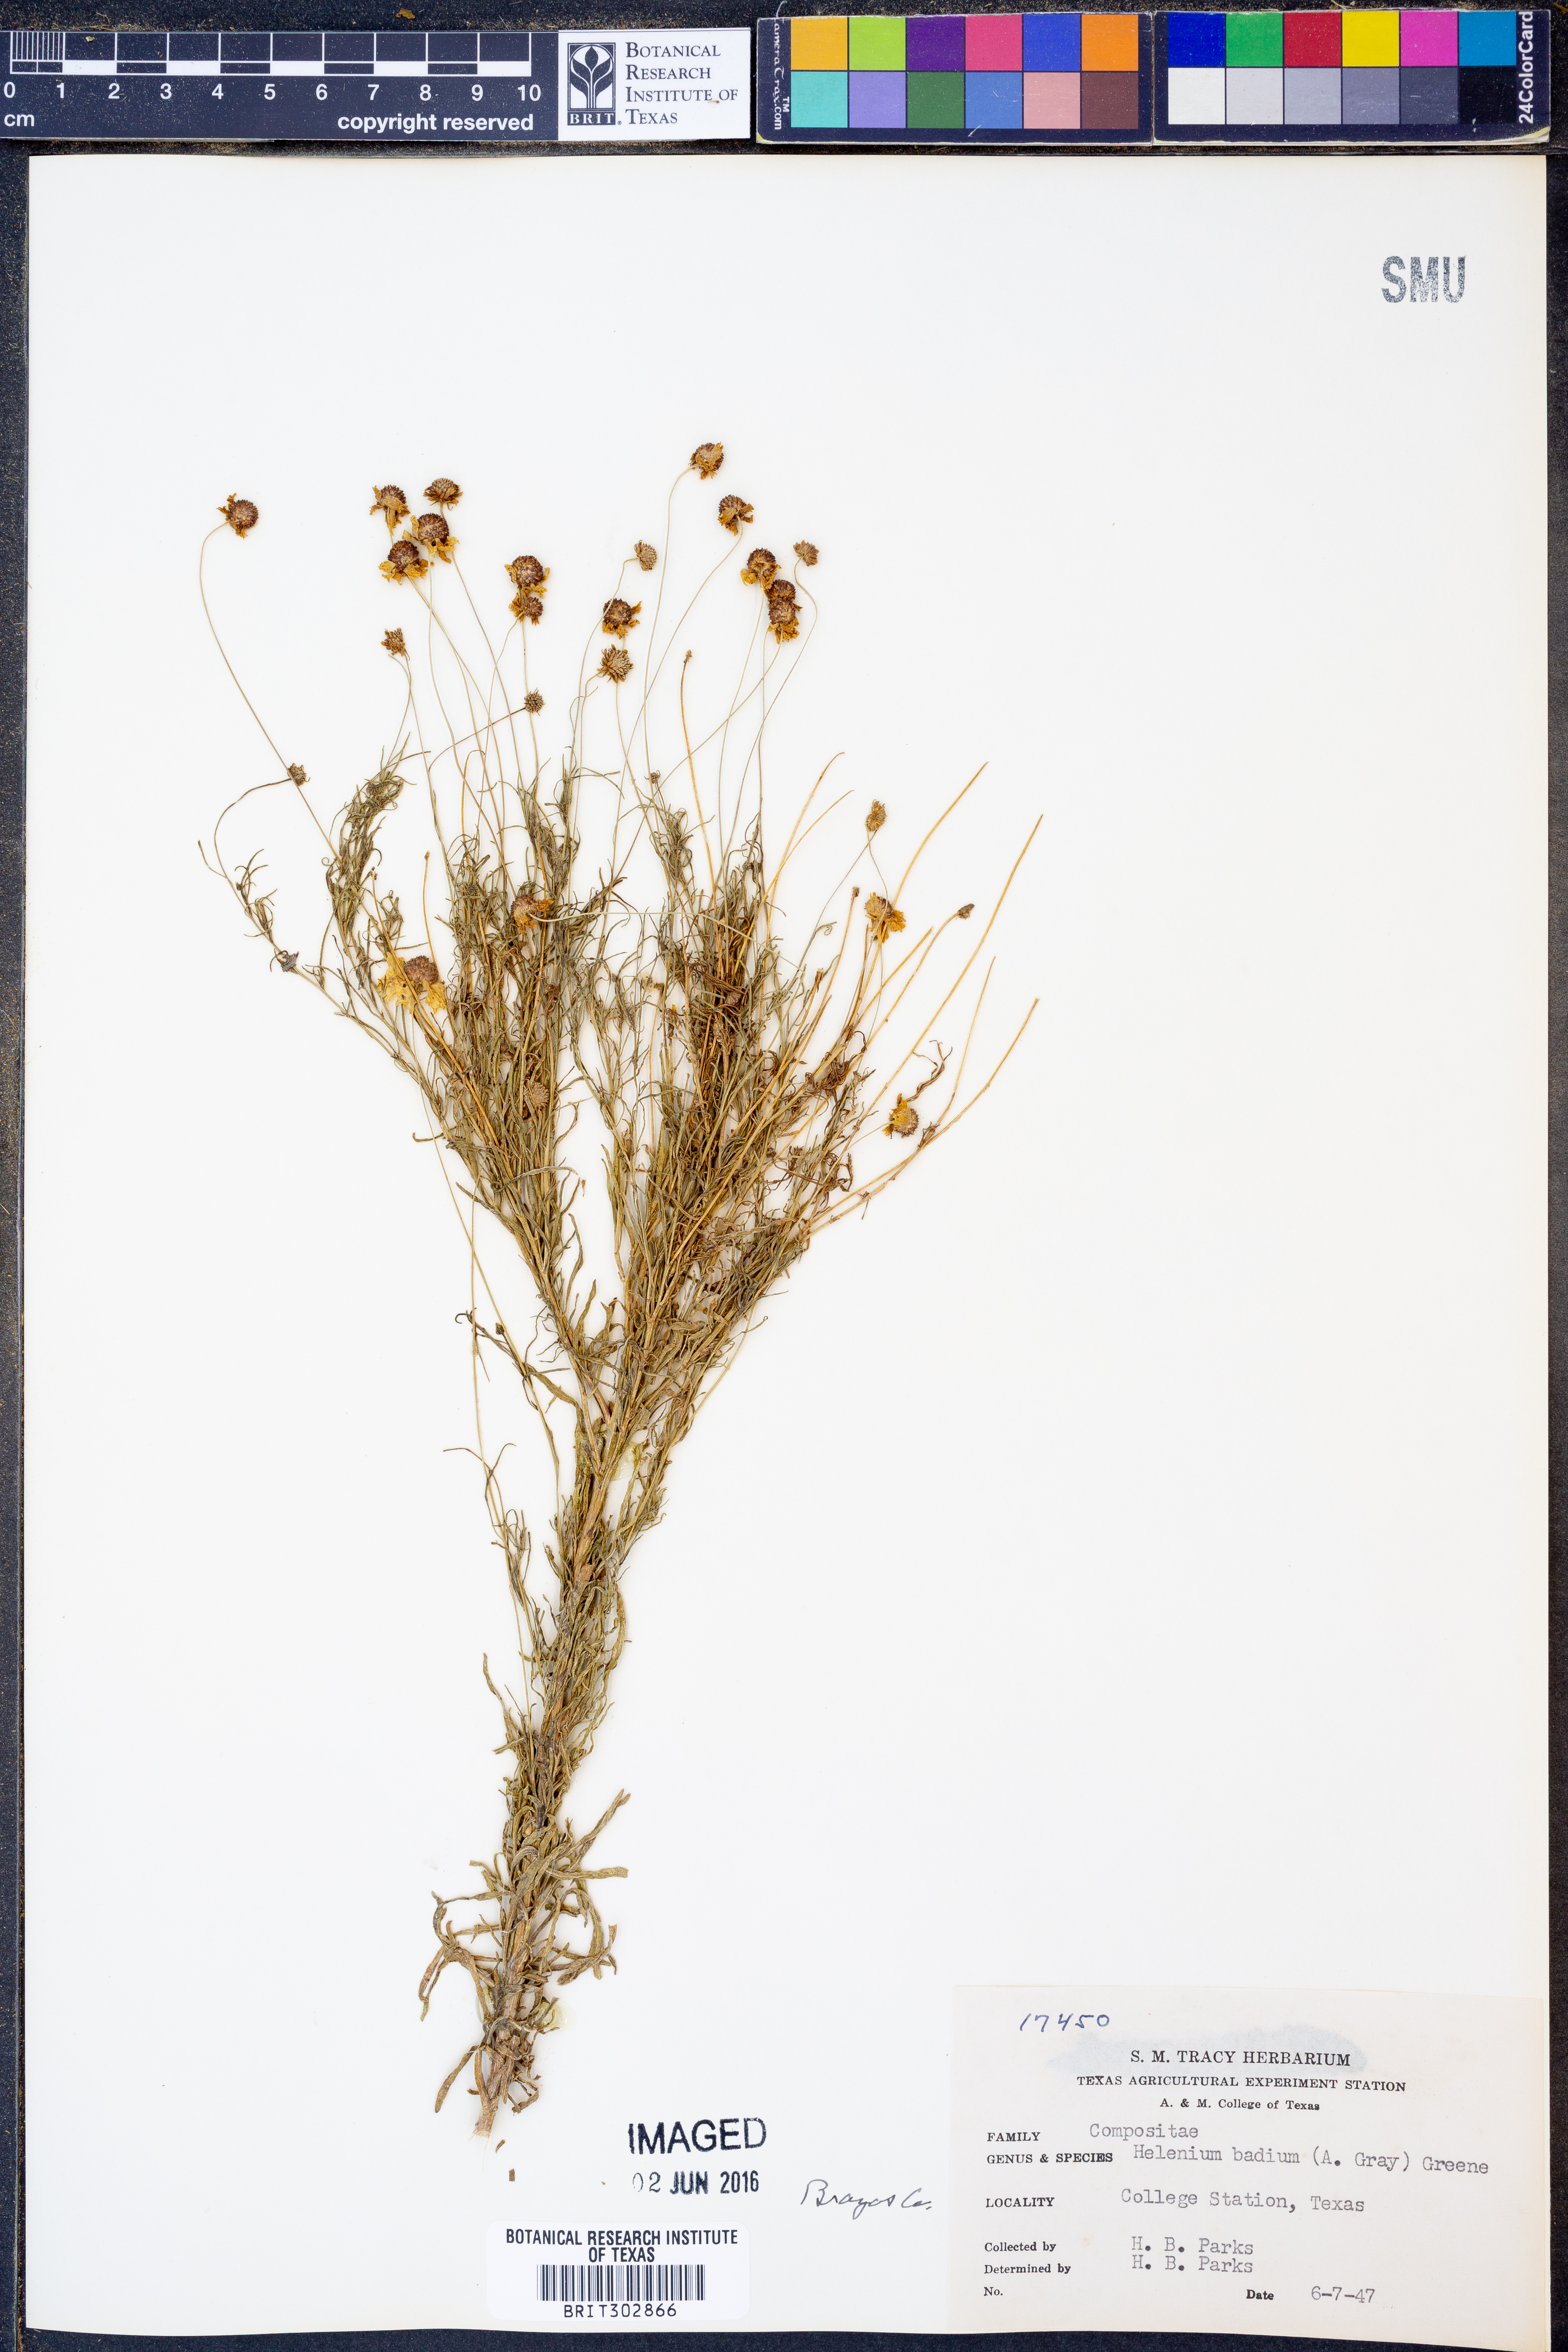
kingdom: Plantae
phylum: Tracheophyta
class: Magnoliopsida
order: Asterales
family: Asteraceae
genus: Helenium
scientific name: Helenium amarum
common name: Bitter sneezeweed
